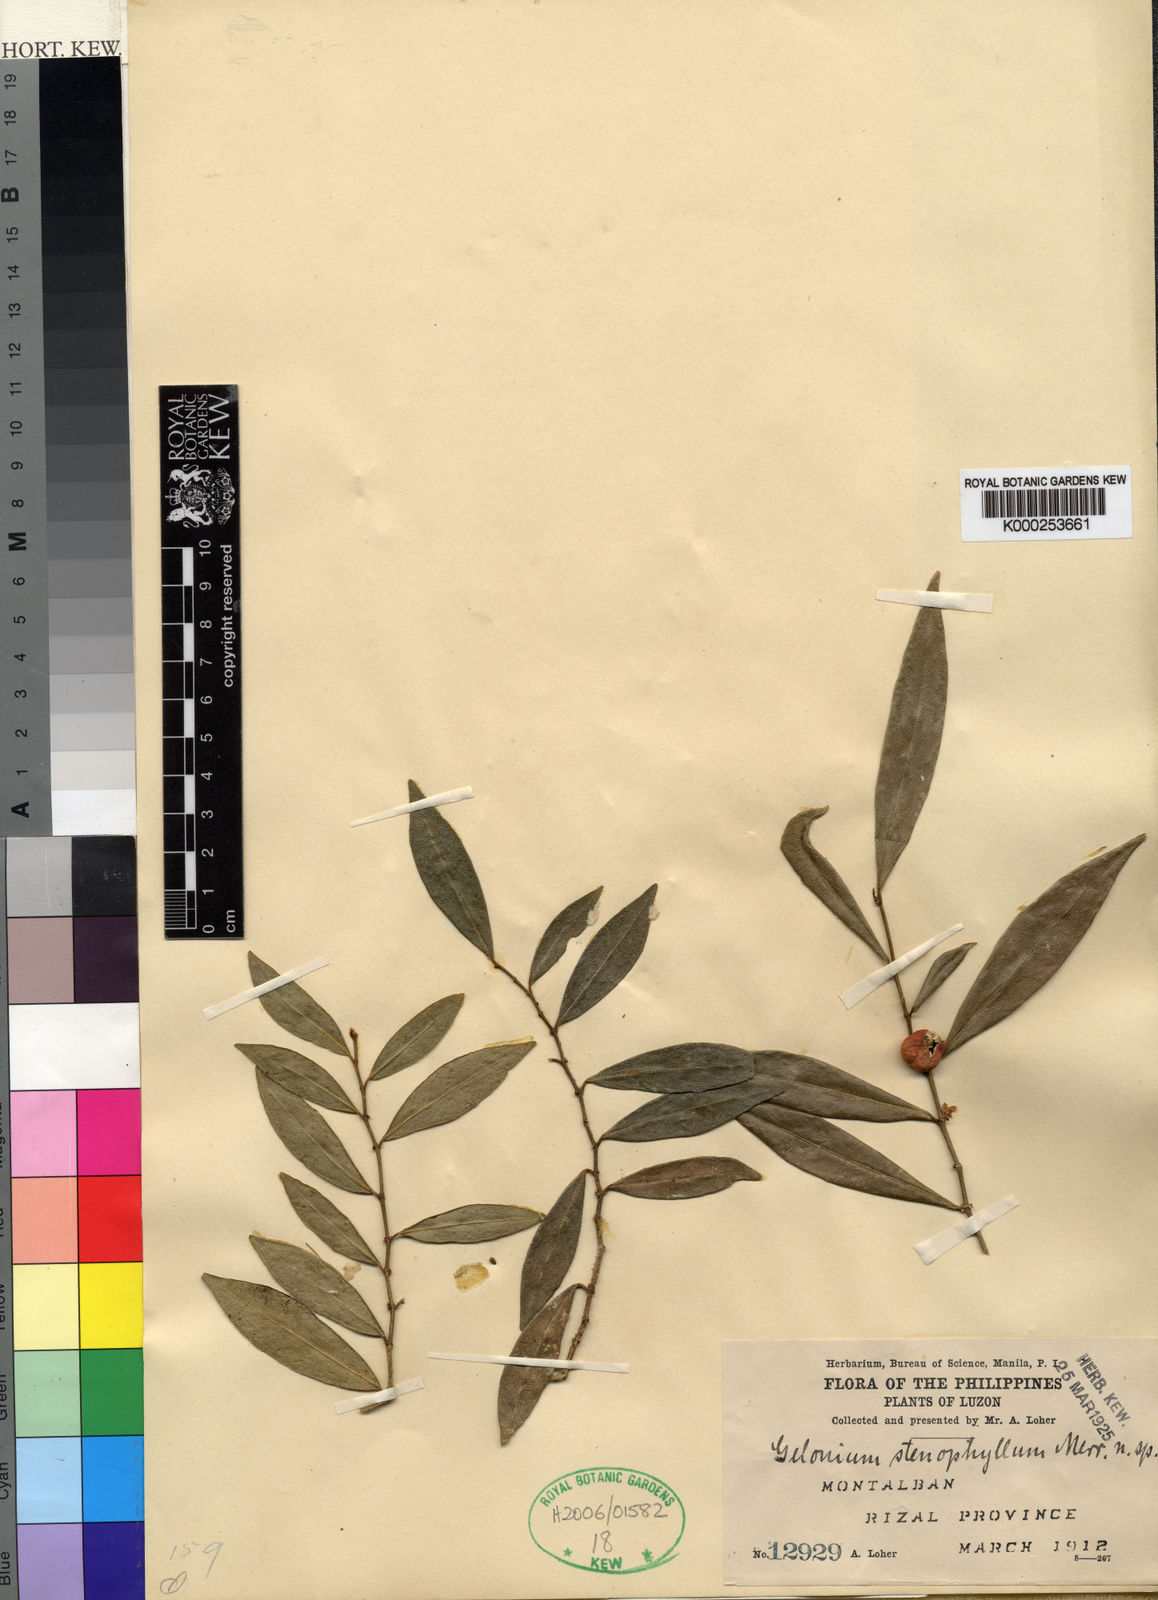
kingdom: Plantae
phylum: Tracheophyta
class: Magnoliopsida
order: Malpighiales
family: Euphorbiaceae
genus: Suregada
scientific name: Suregada stenophylla
